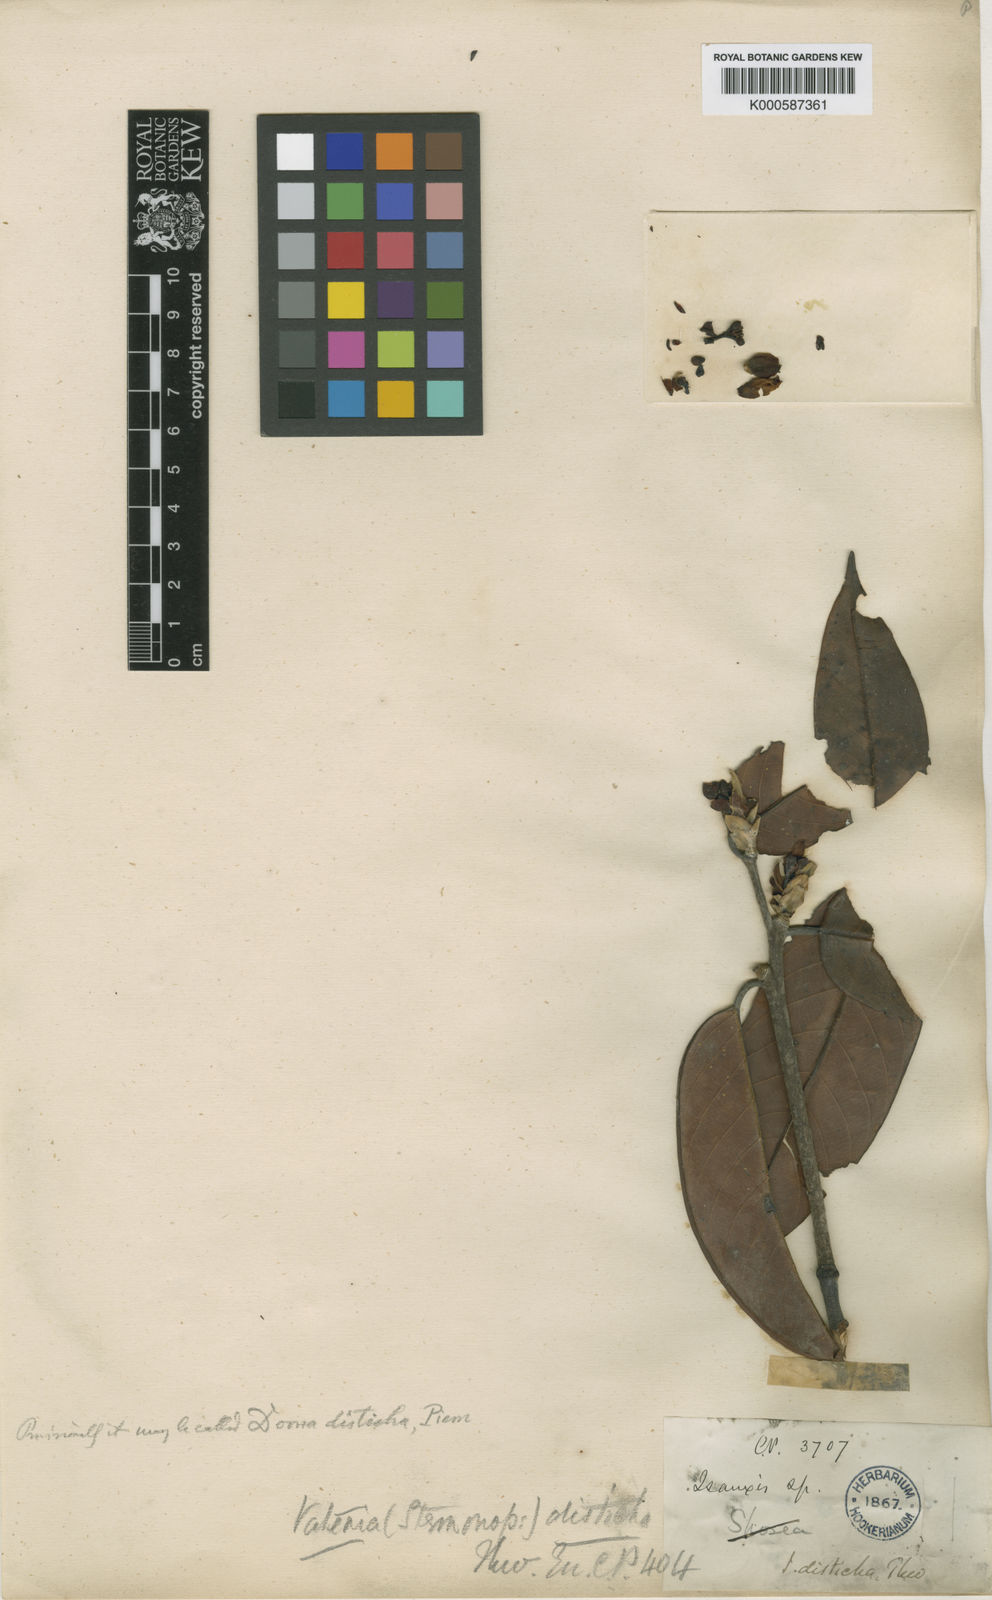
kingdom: Plantae
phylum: Tracheophyta
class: Magnoliopsida
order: Malvales
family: Dipterocarpaceae
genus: Doona
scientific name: Doona disticha
